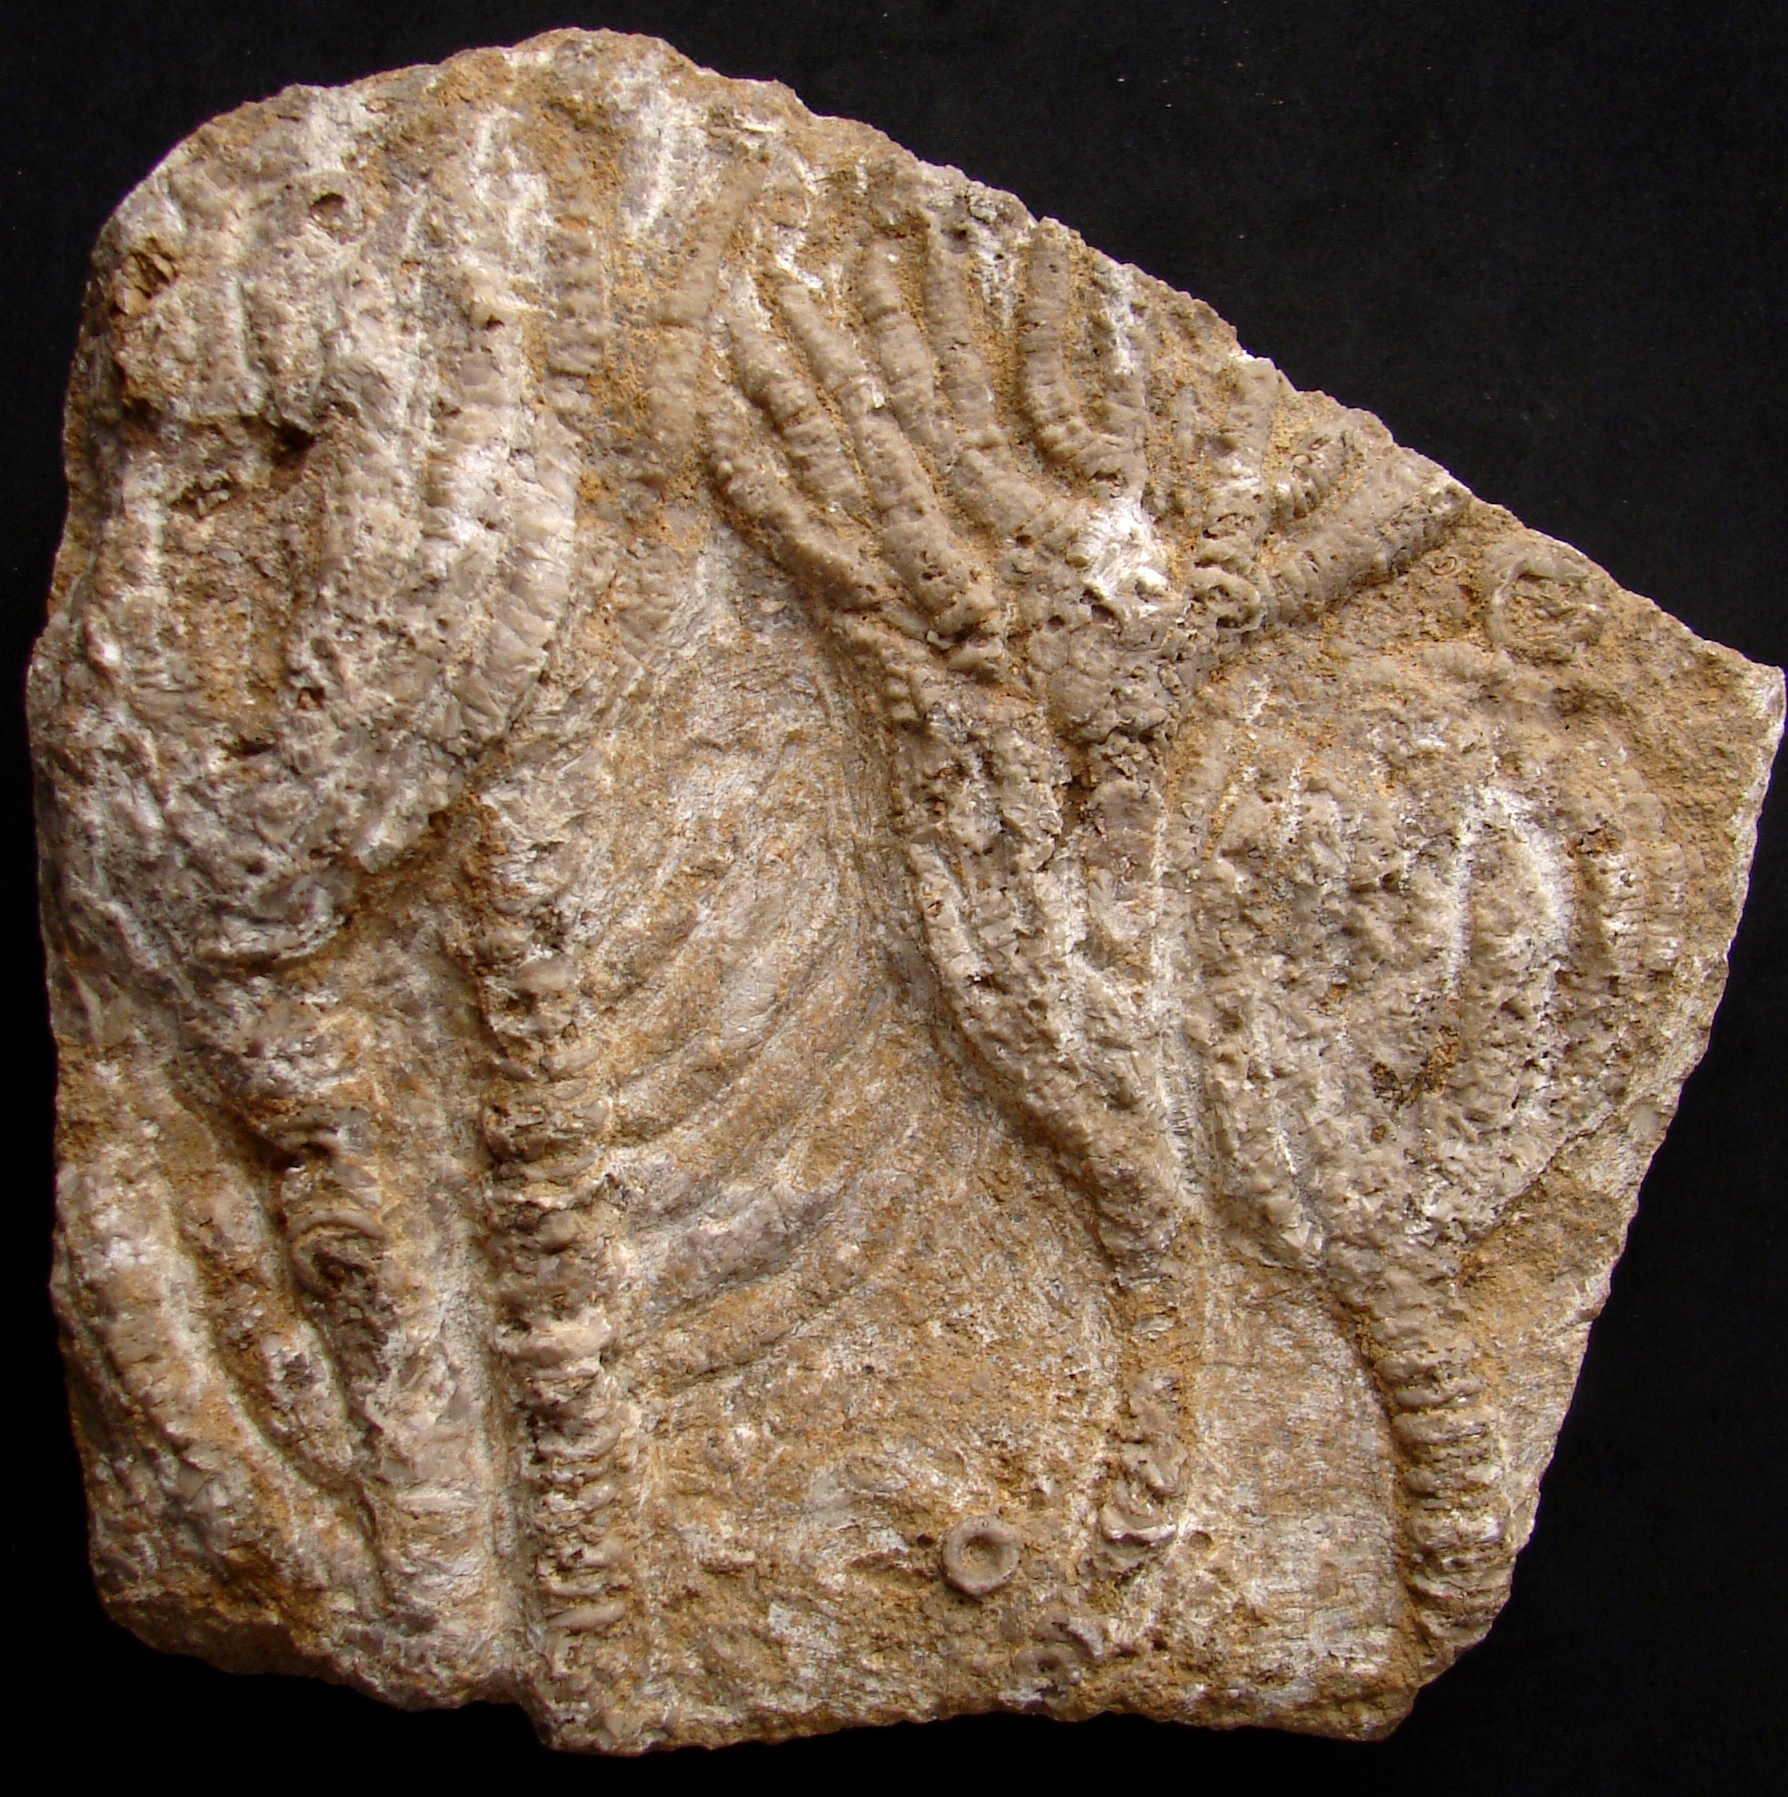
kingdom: Animalia
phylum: Echinodermata
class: Crinoidea
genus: Woodocrinus
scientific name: Woodocrinus
